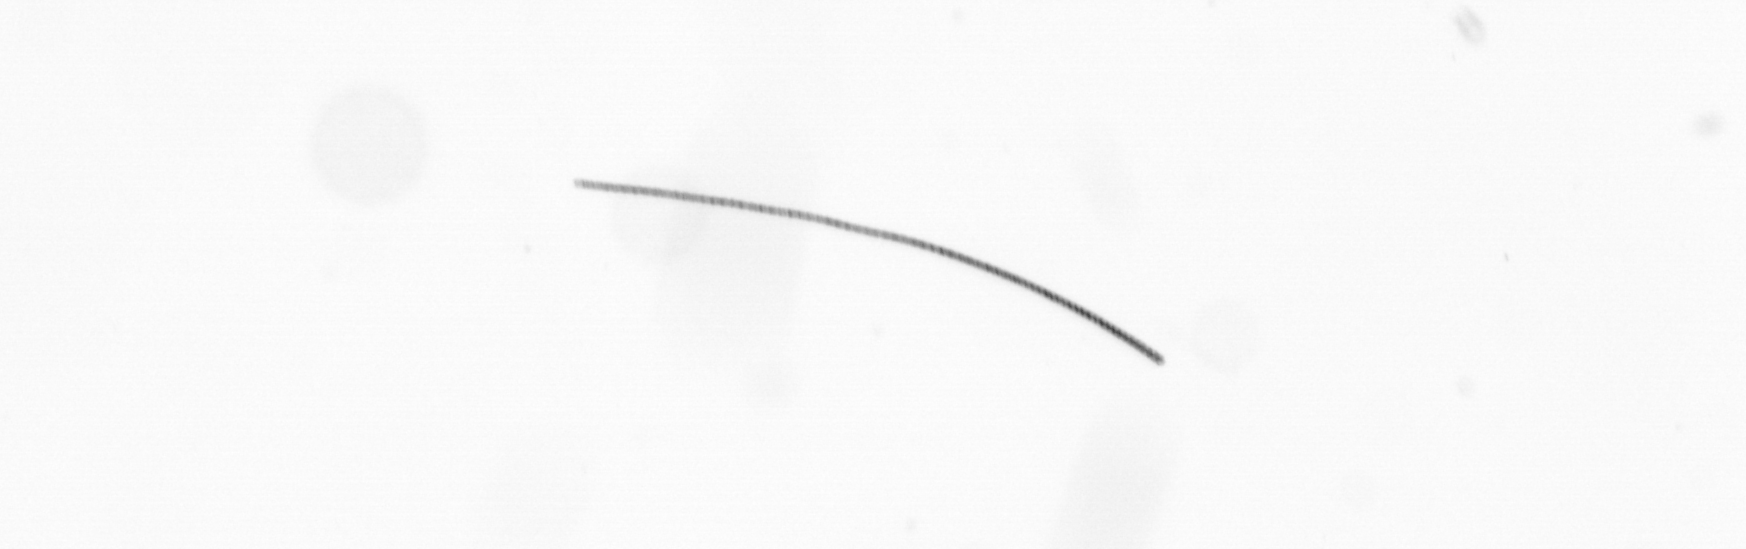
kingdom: Chromista
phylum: Ochrophyta
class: Bacillariophyceae
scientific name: Bacillariophyceae
